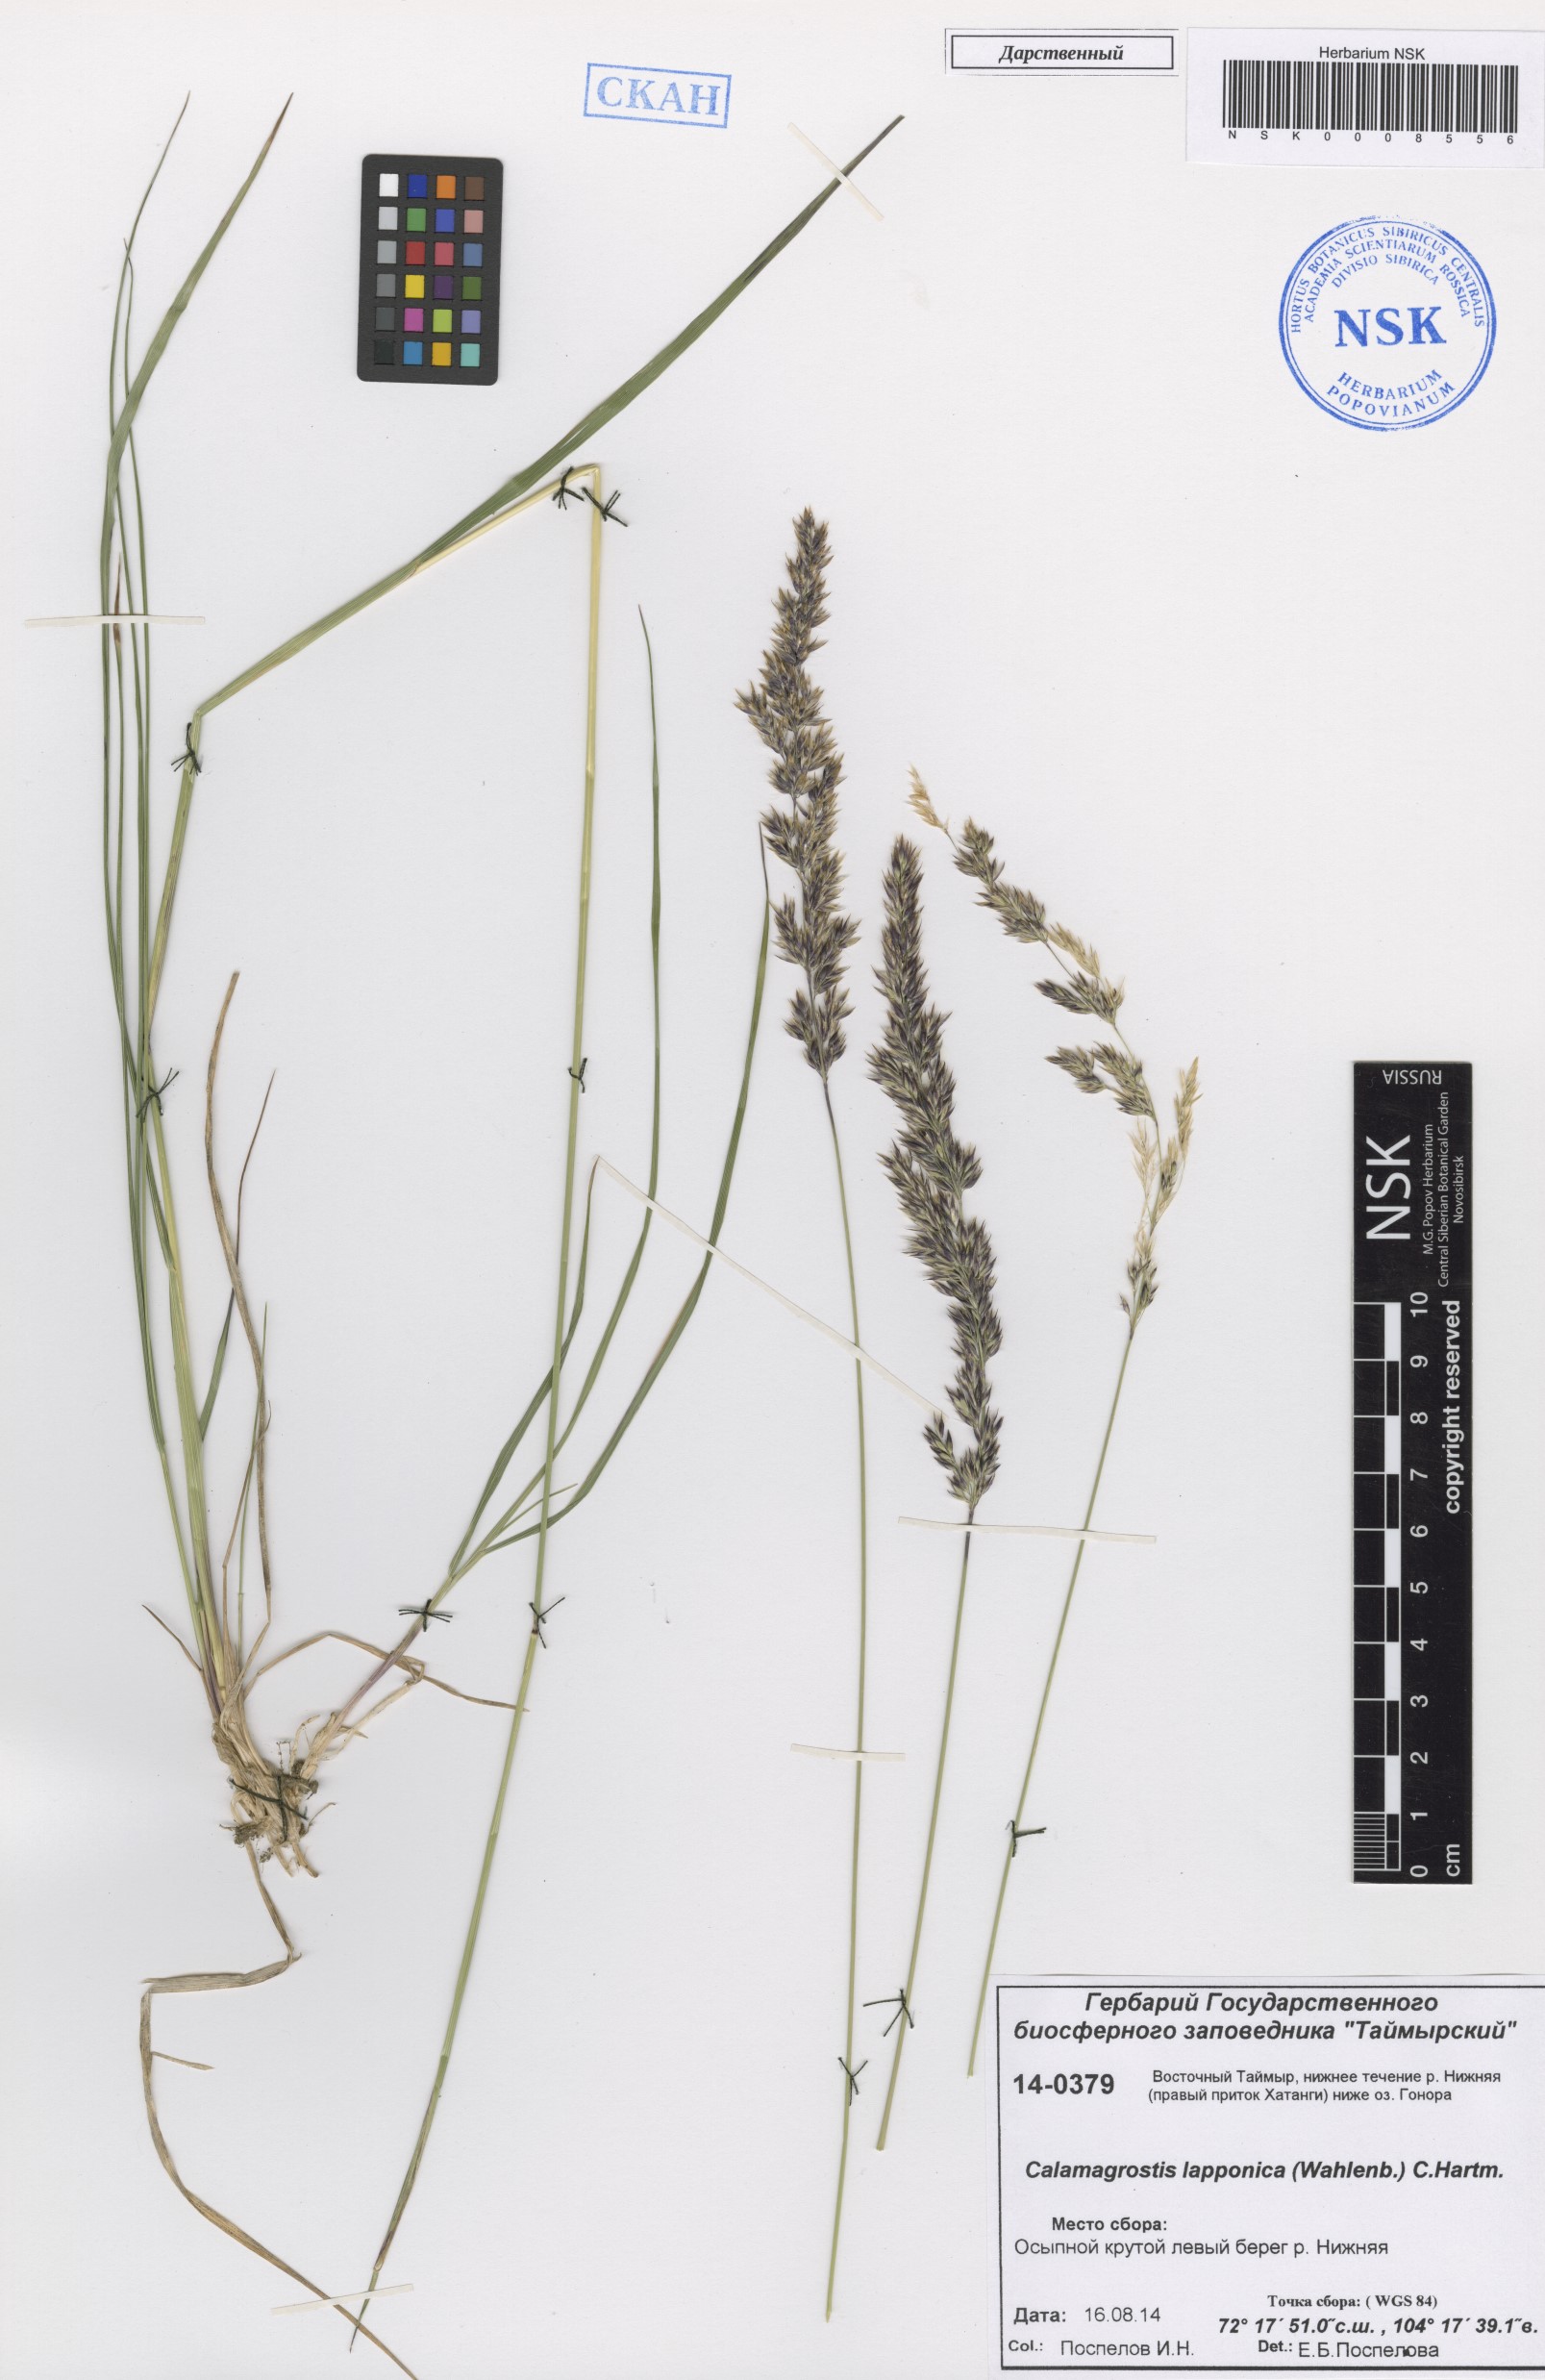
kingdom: Plantae
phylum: Tracheophyta
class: Liliopsida
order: Poales
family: Poaceae
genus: Calamagrostis
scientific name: Calamagrostis lapponica
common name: Lapland reedgrass
